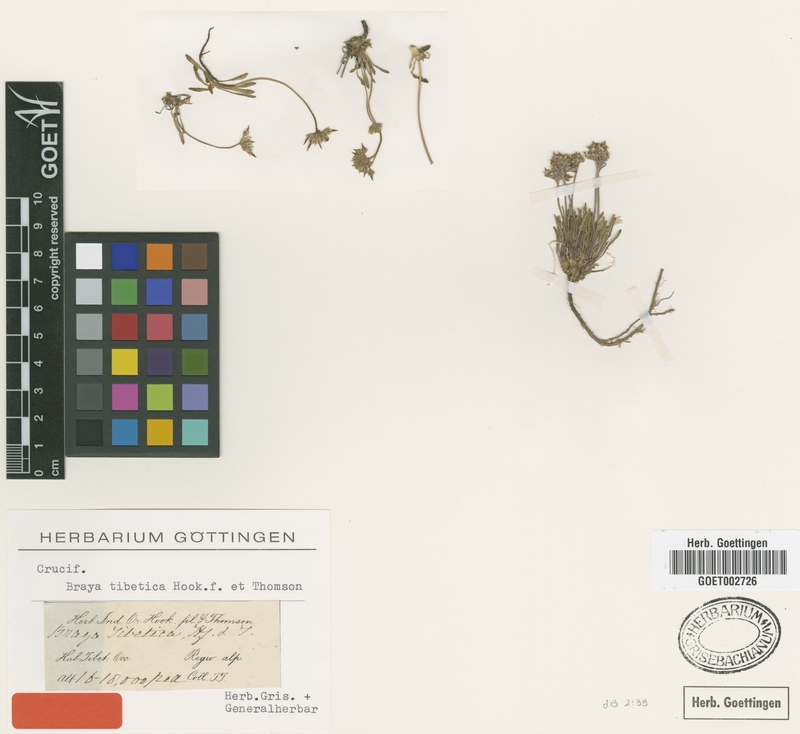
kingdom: Plantae
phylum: Tracheophyta
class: Magnoliopsida
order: Brassicales
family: Brassicaceae
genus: Braya
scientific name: Braya tibetica
